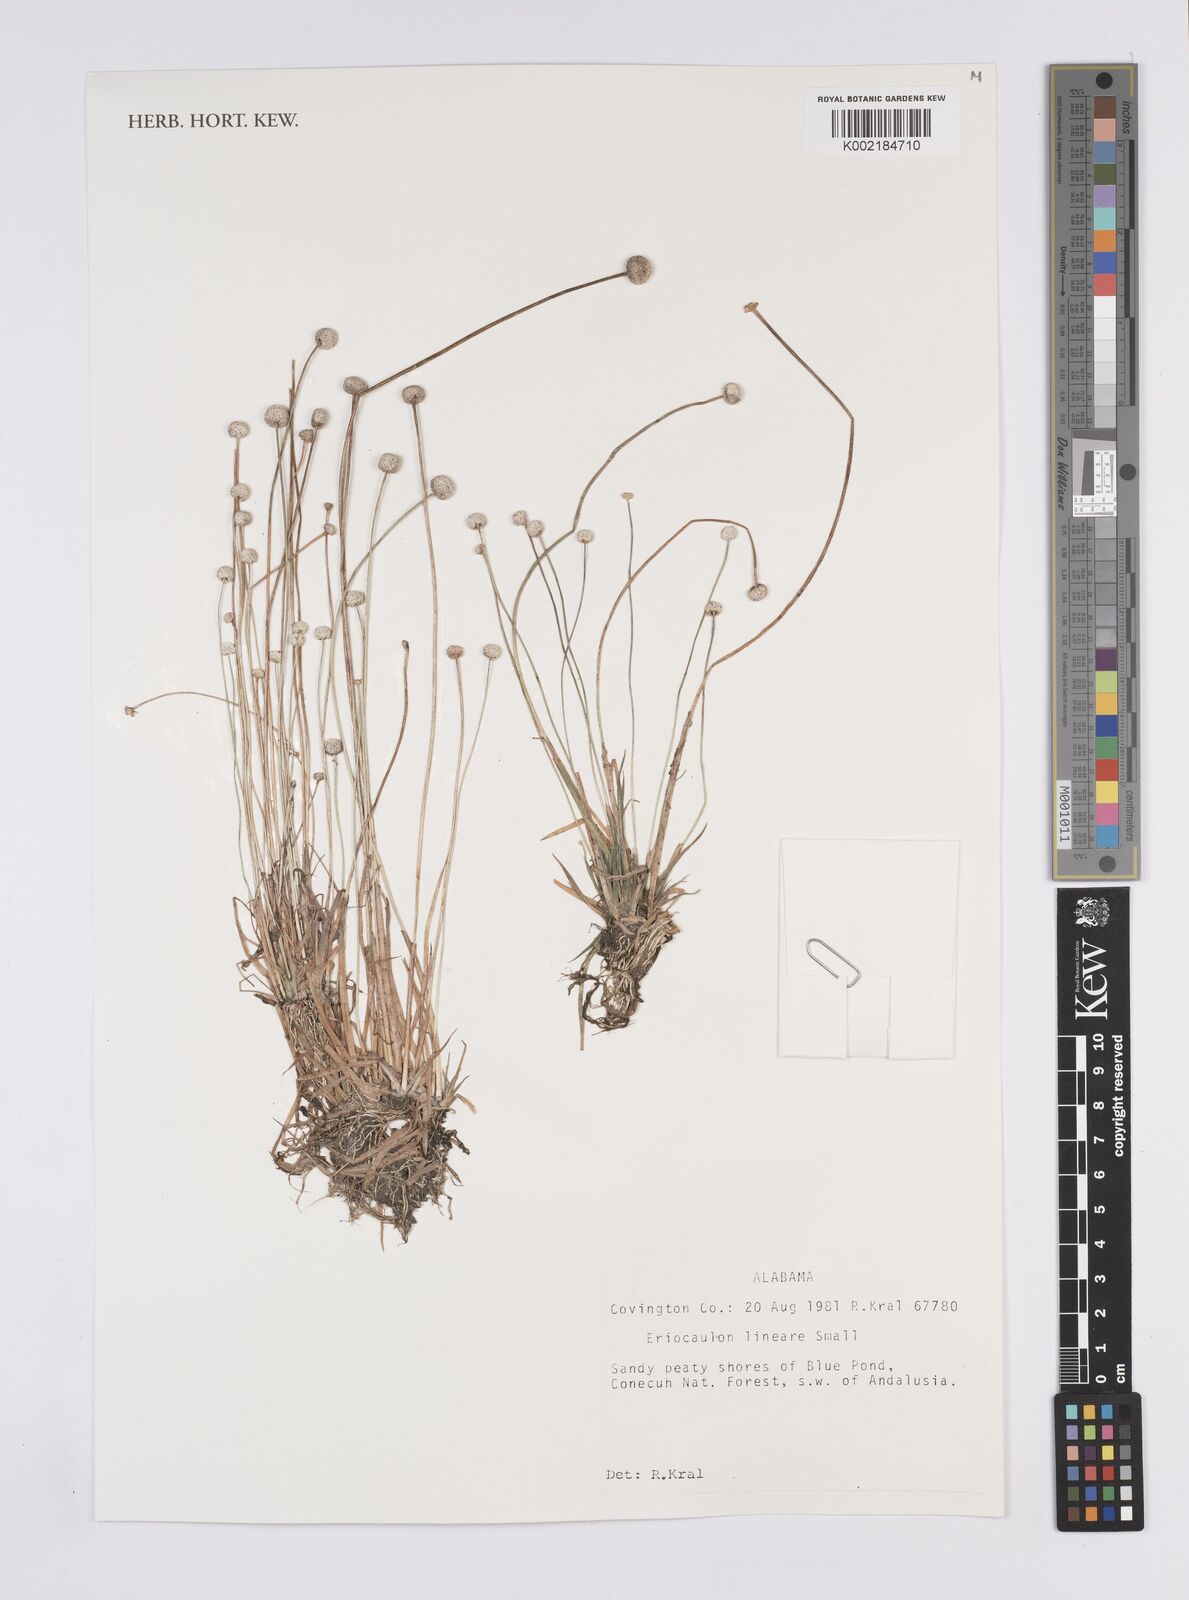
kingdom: Plantae
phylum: Tracheophyta
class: Liliopsida
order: Poales
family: Eriocaulaceae
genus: Eriocaulon
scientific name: Eriocaulon lineare
